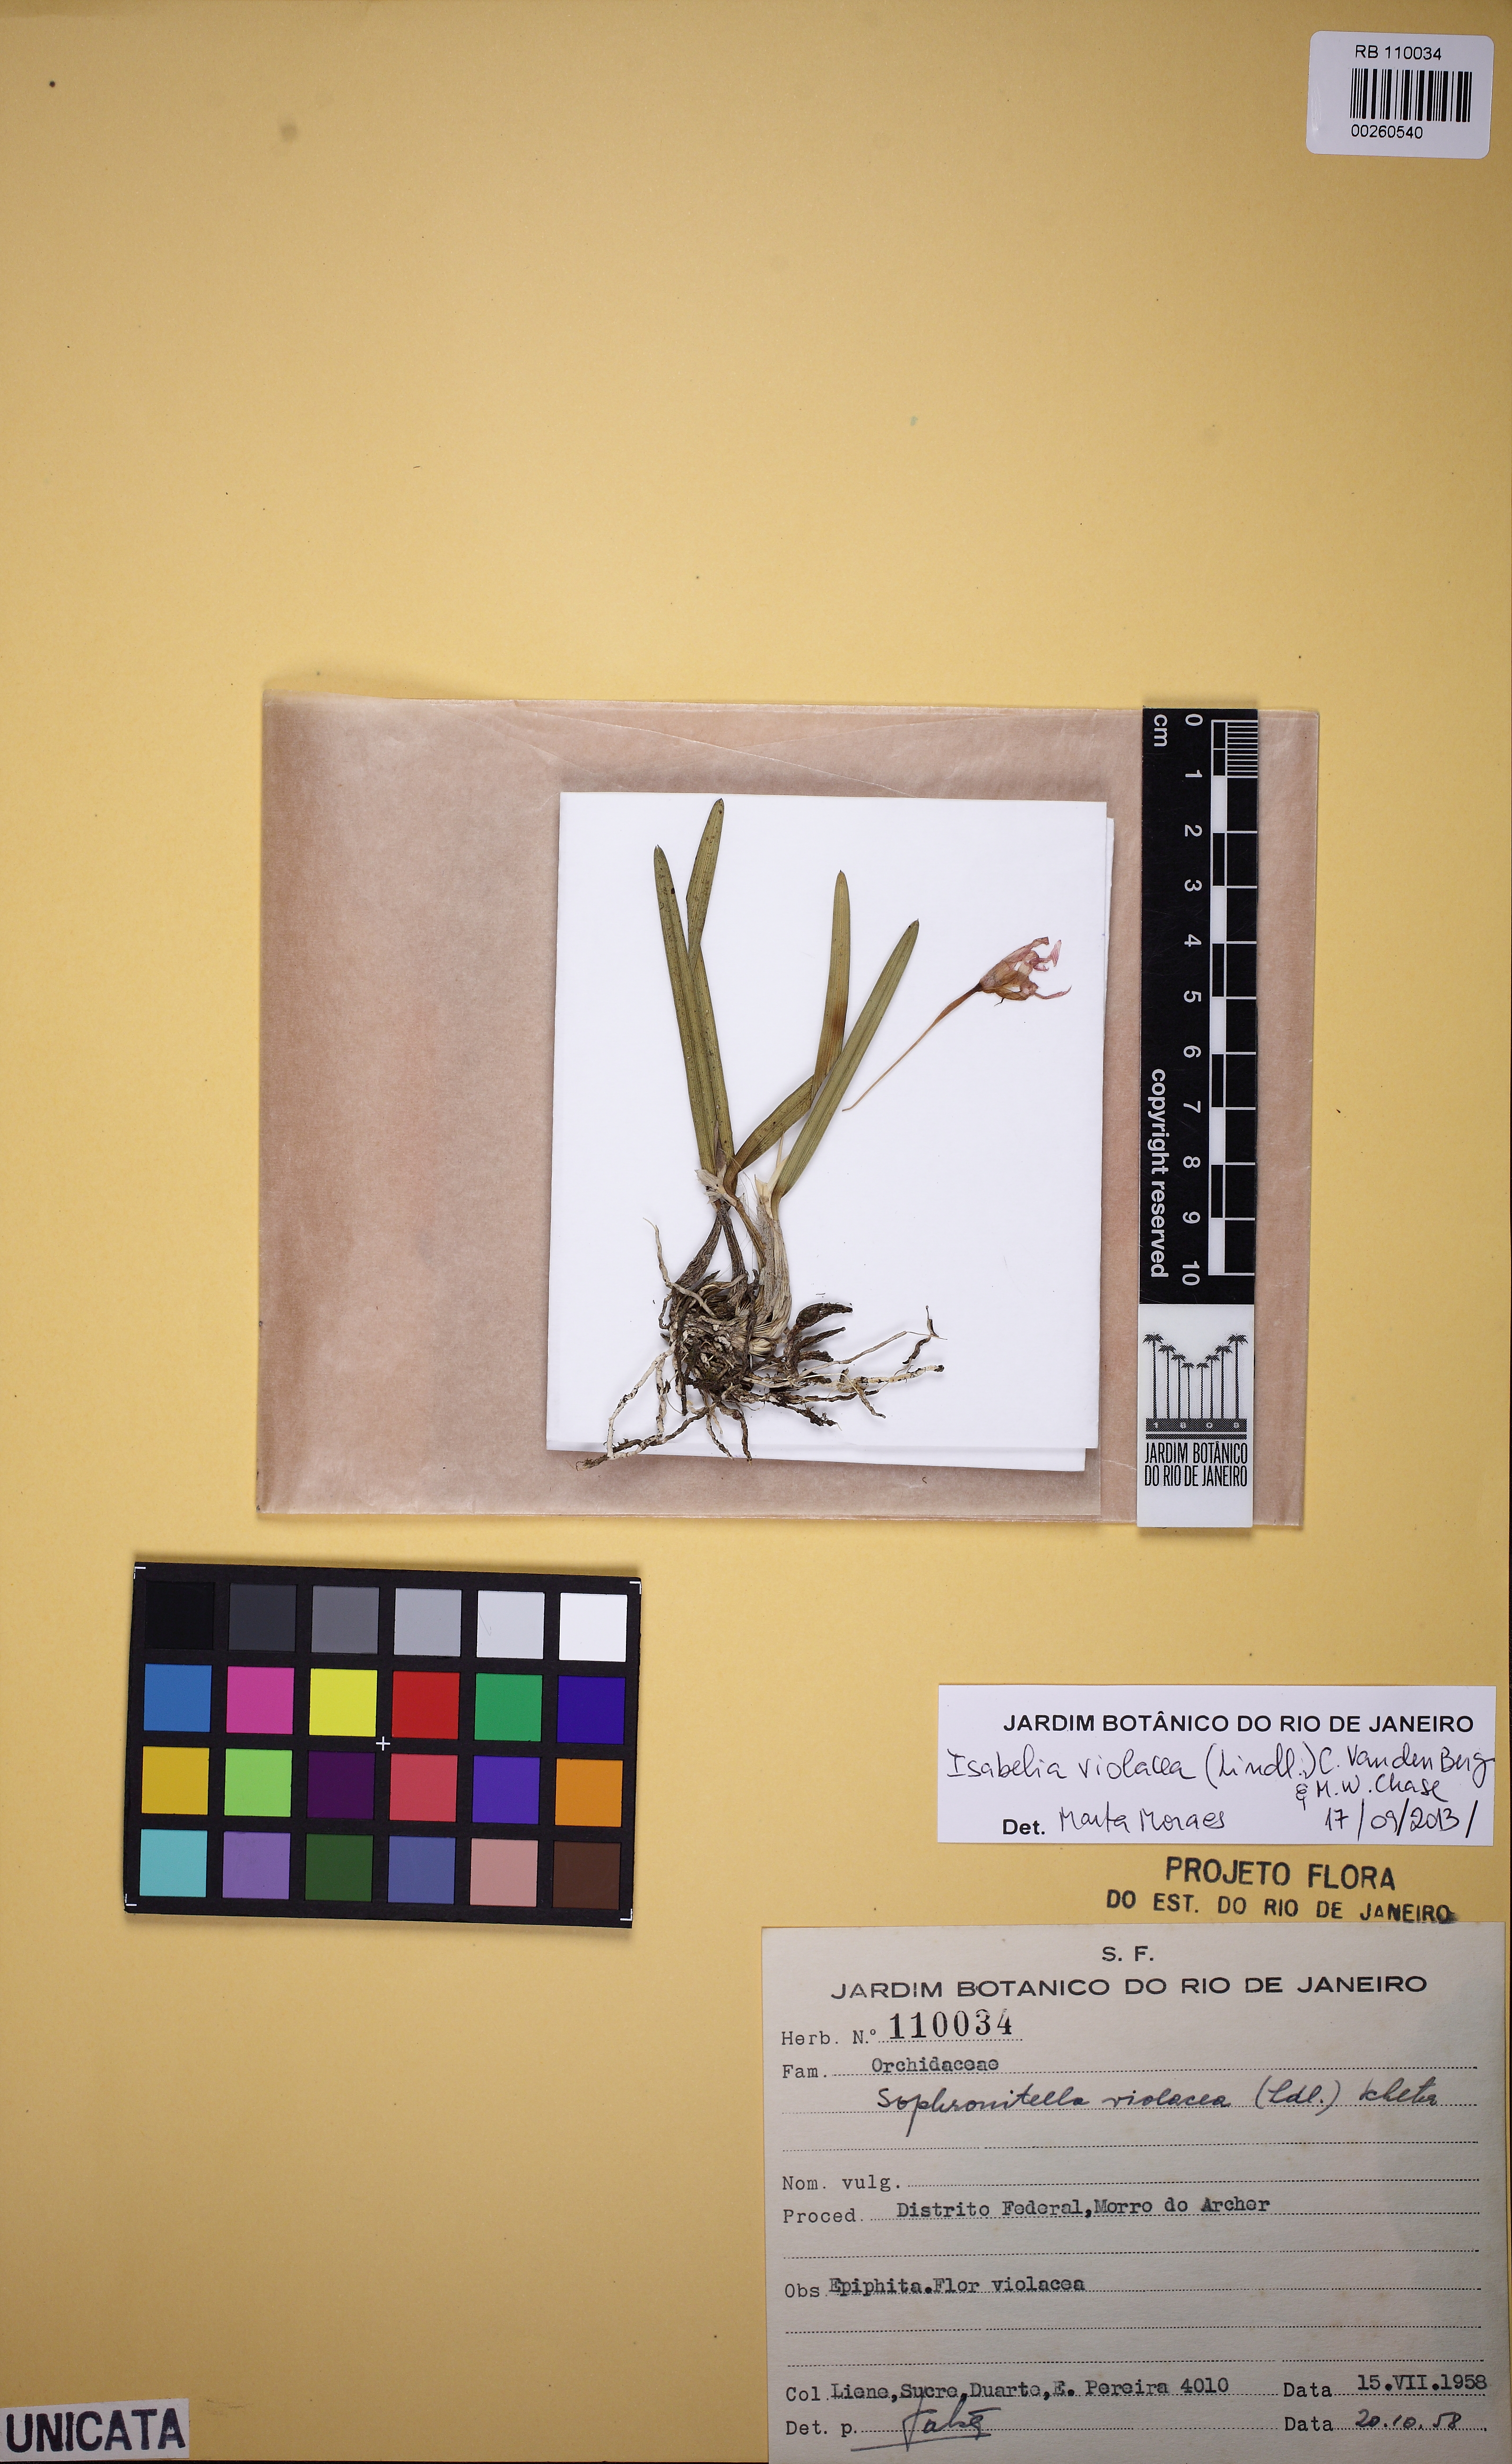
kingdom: Plantae
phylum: Tracheophyta
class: Liliopsida
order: Asparagales
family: Orchidaceae
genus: Isabelia
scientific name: Isabelia violacea
